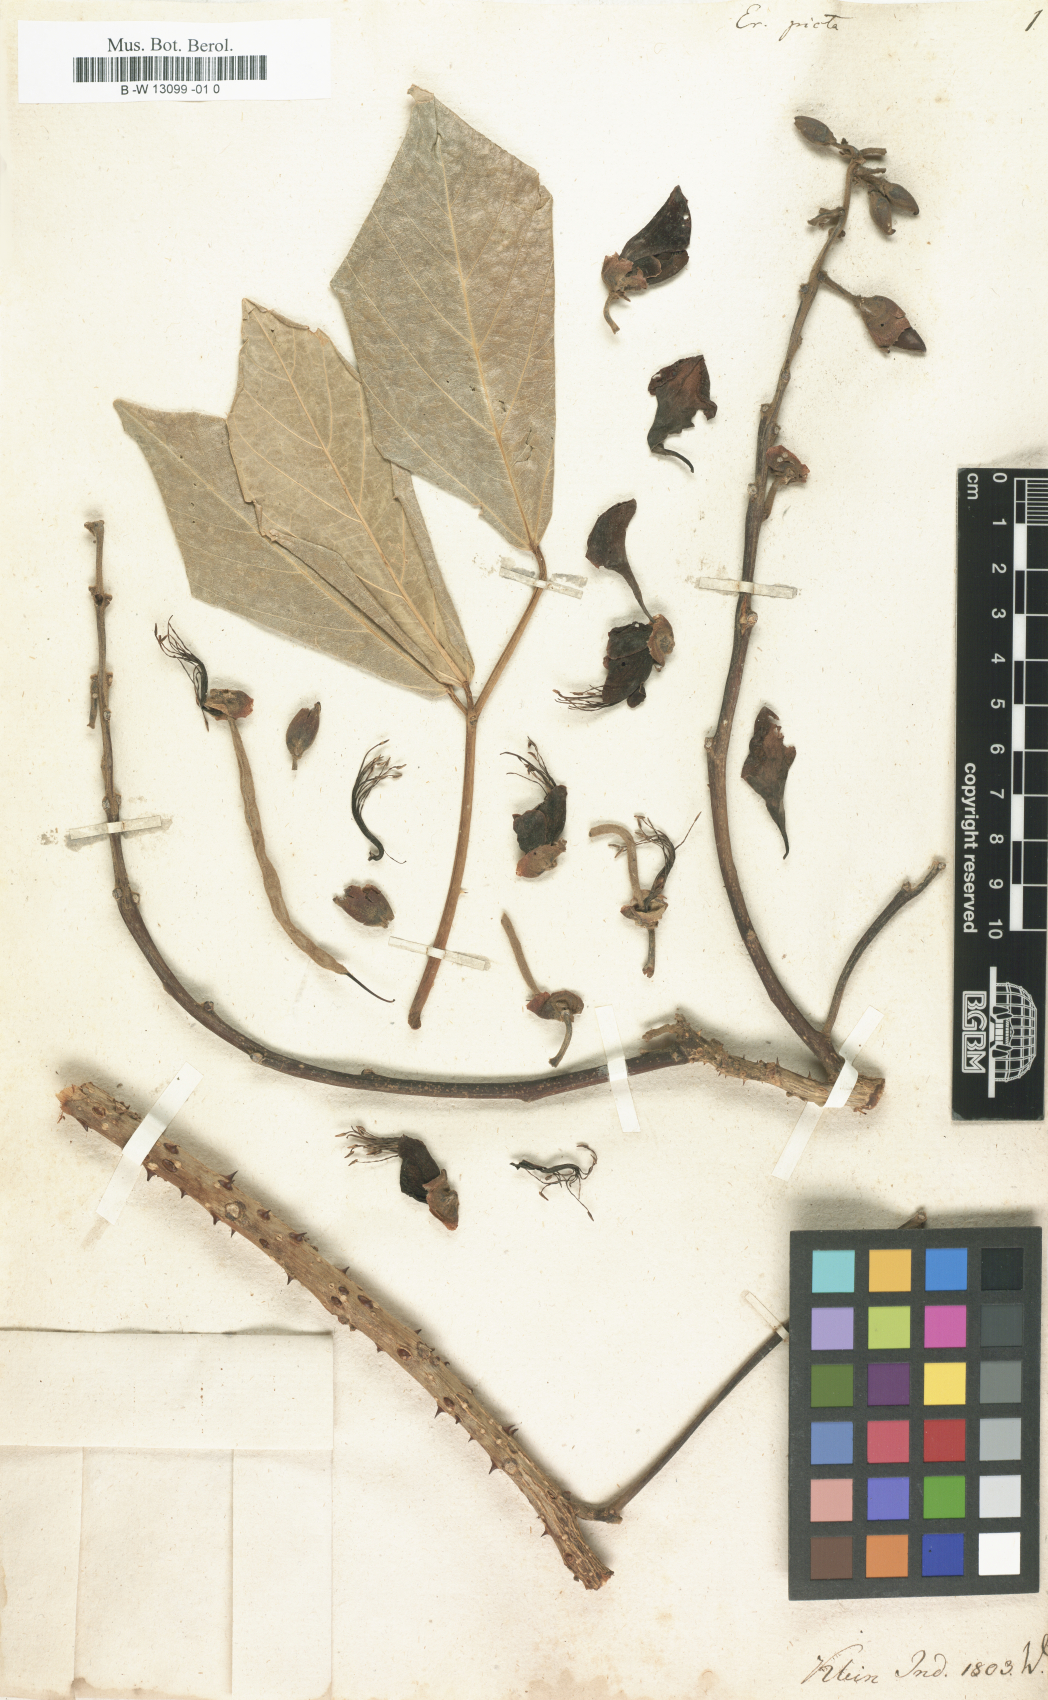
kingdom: Plantae
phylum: Tracheophyta
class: Magnoliopsida
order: Fabales
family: Fabaceae
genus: Erythrina
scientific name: Erythrina
